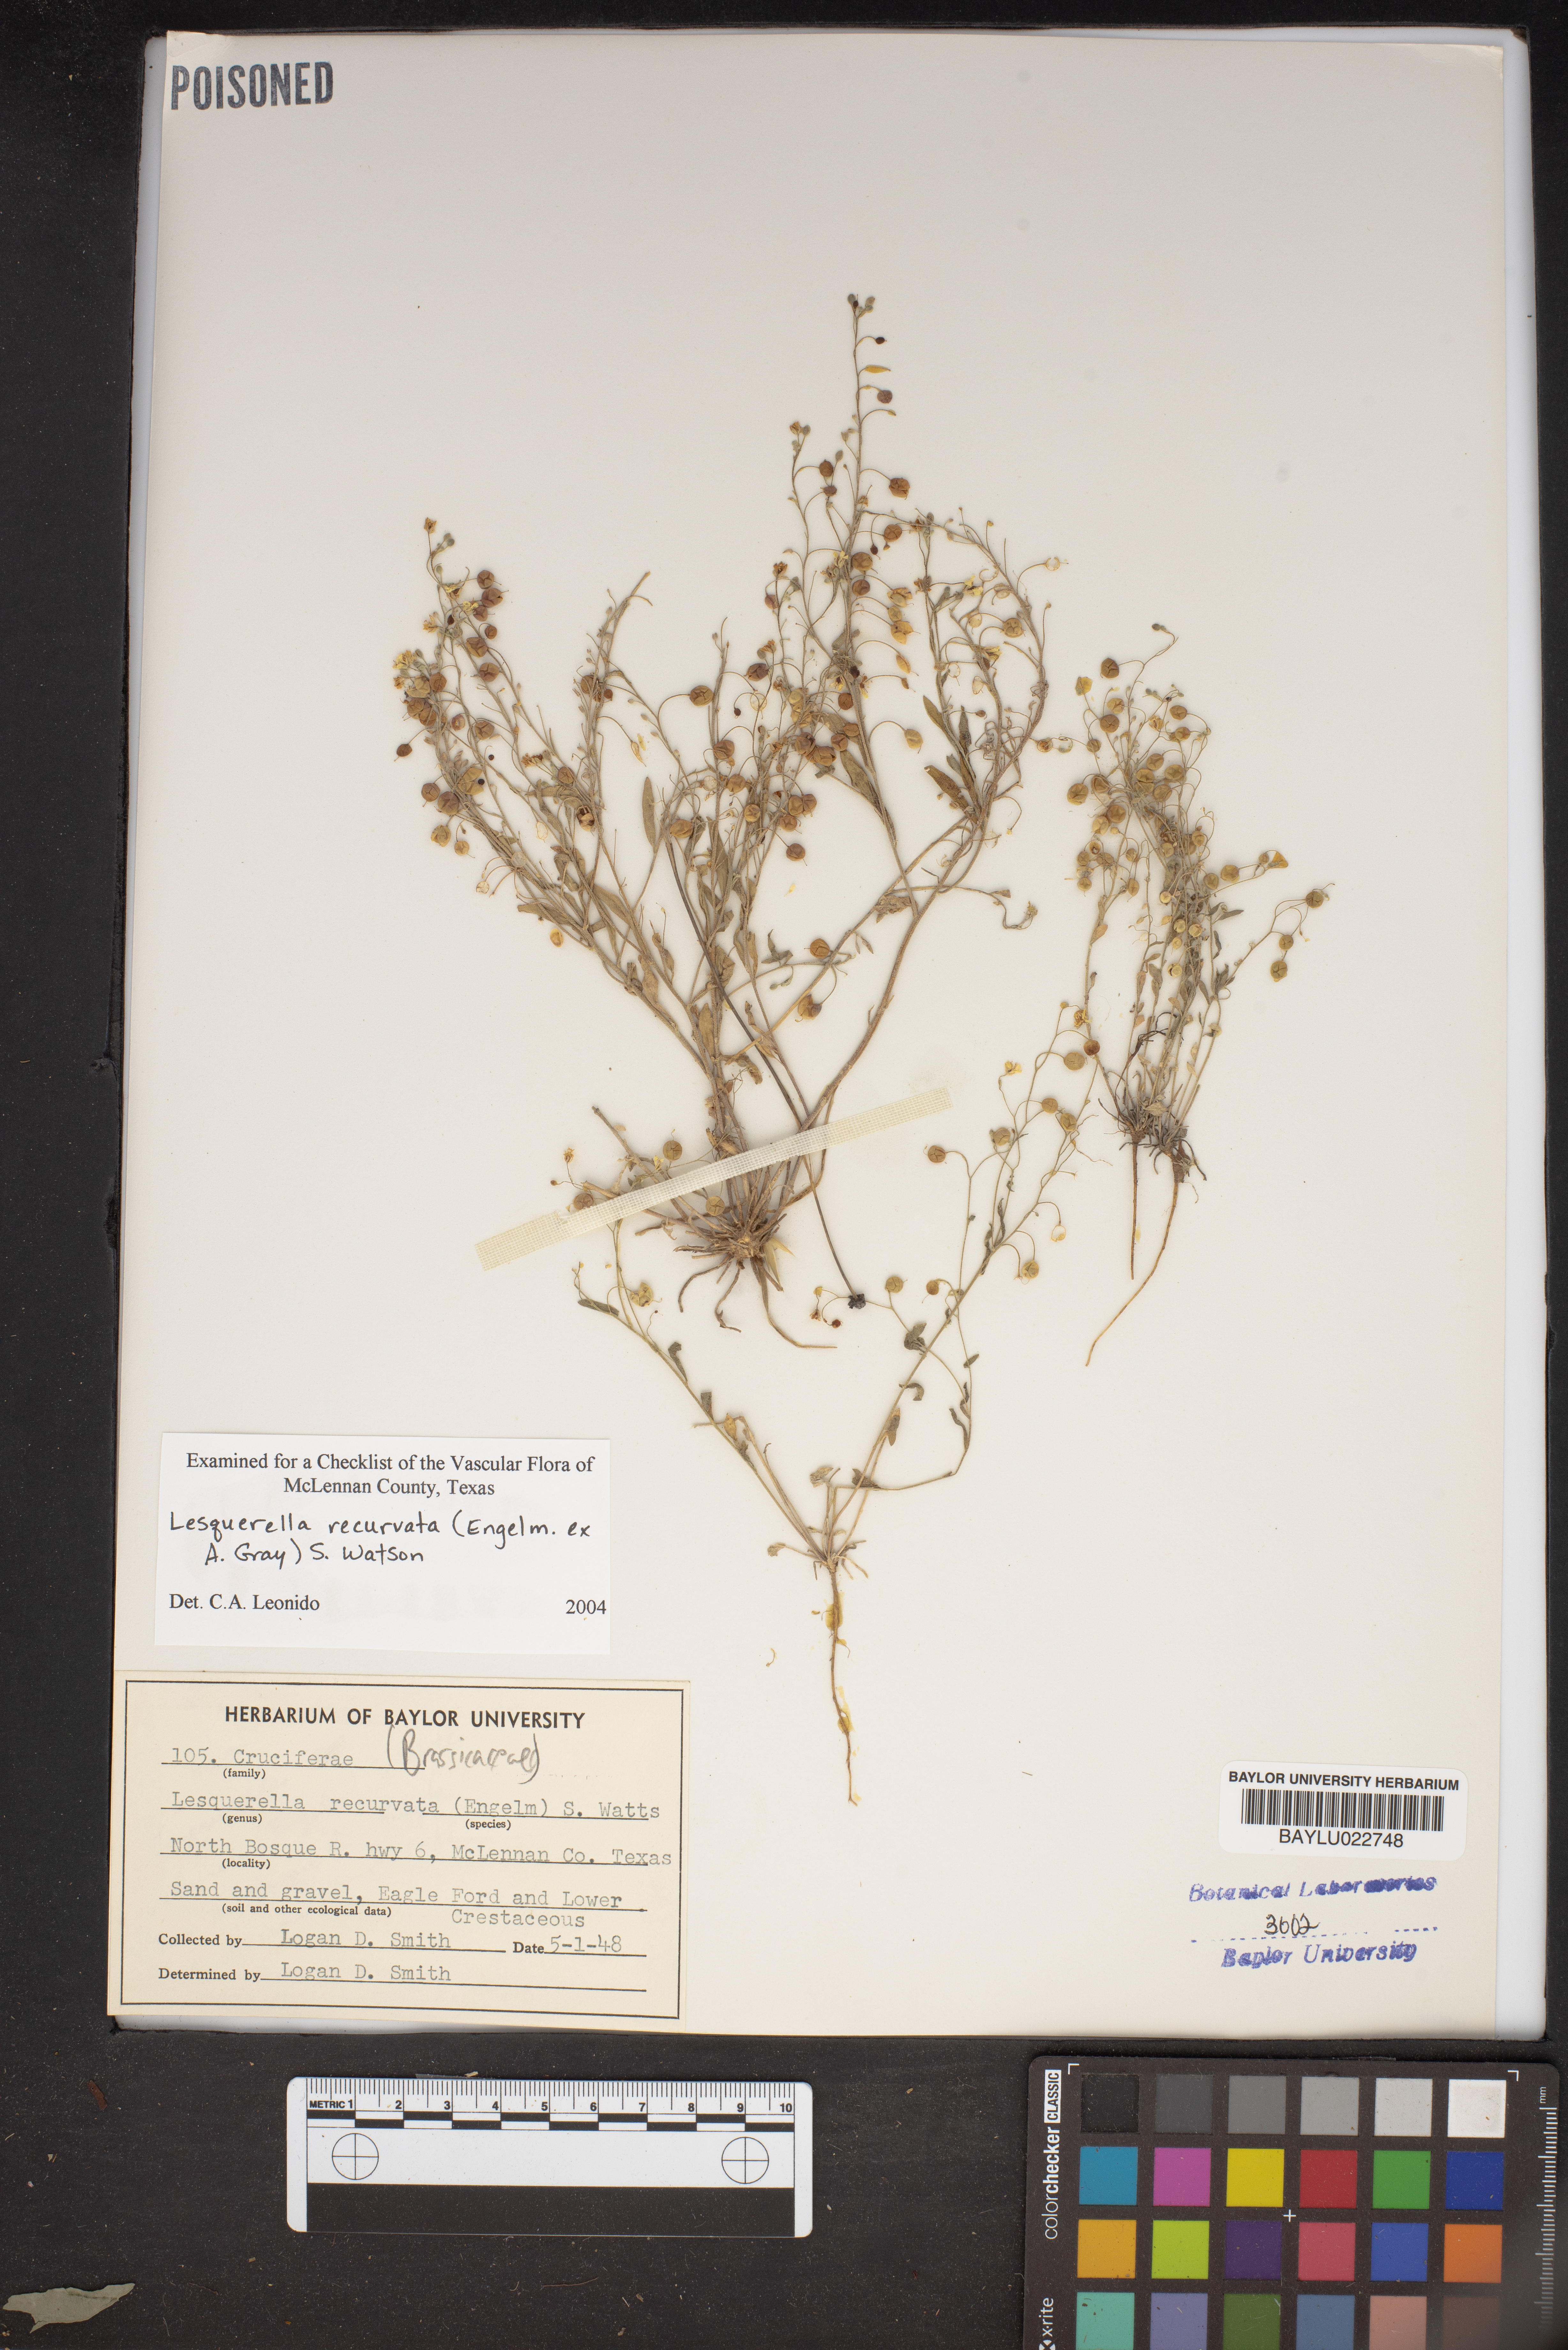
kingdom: Plantae
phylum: Tracheophyta
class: Magnoliopsida
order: Brassicales
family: Brassicaceae
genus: Physaria
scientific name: Physaria recurvata
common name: Gaslight bladderpod
